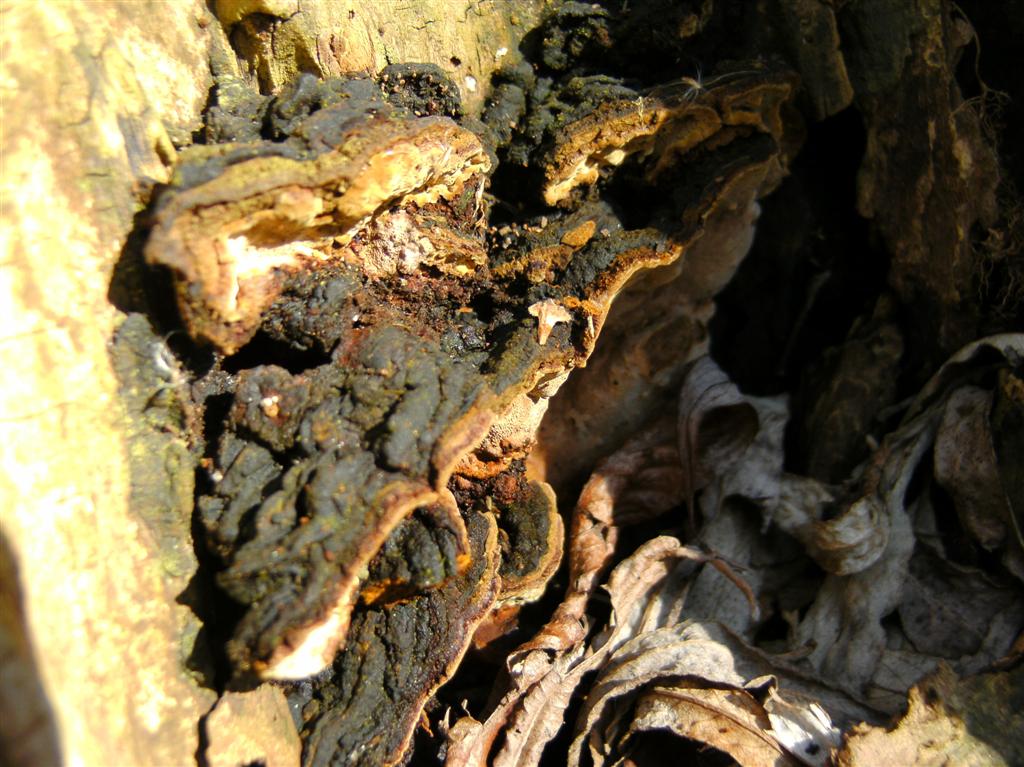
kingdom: Fungi
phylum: Basidiomycota
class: Agaricomycetes
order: Hymenochaetales
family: Hymenochaetaceae
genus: Phellinopsis
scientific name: Phellinopsis conchata
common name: pile-ildporesvamp
